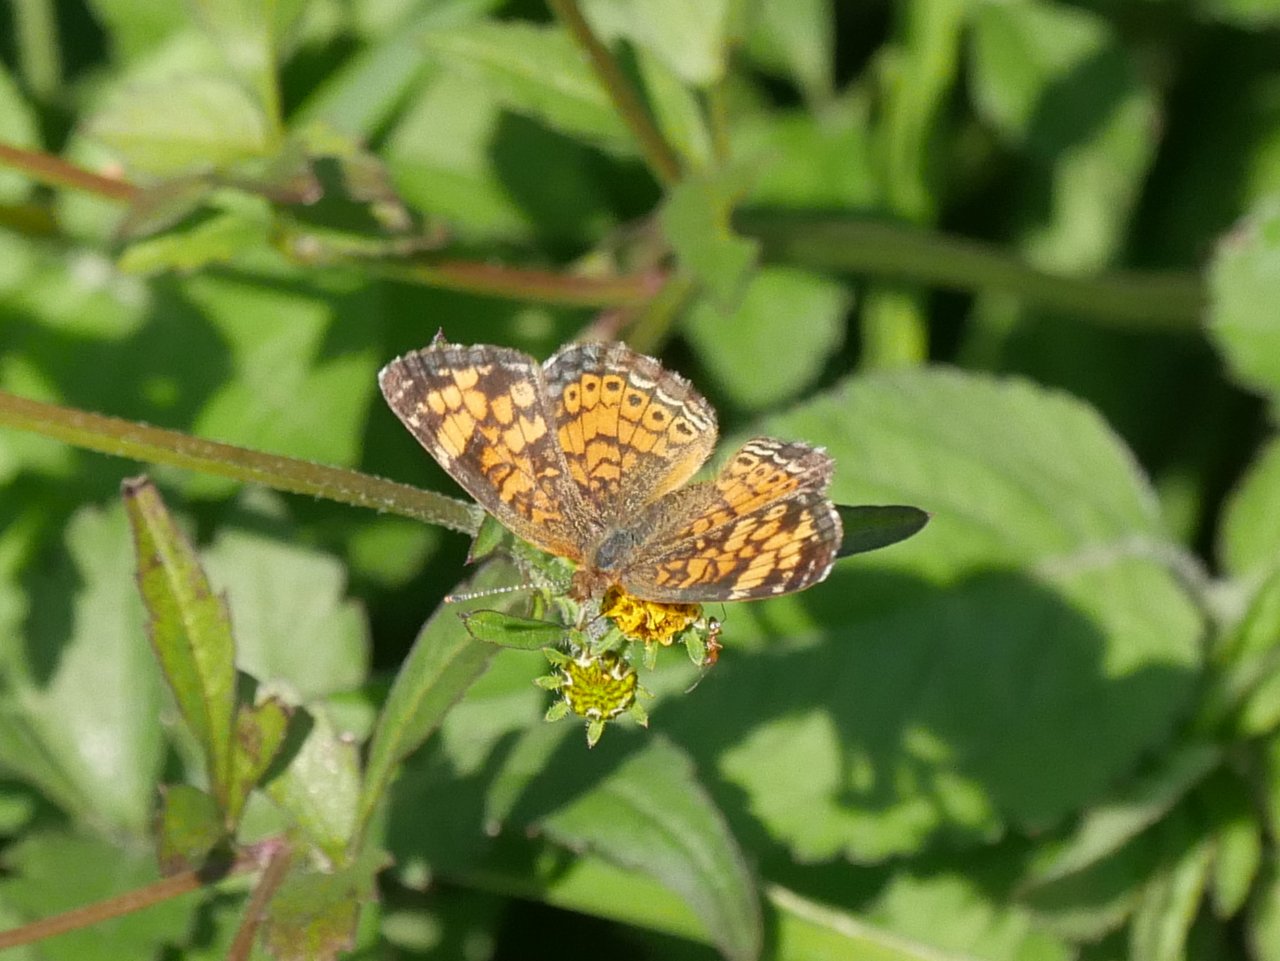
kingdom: Animalia
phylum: Arthropoda
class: Insecta
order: Lepidoptera
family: Nymphalidae
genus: Phyciodes
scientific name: Phyciodes tharos
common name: Pearl Crescent
